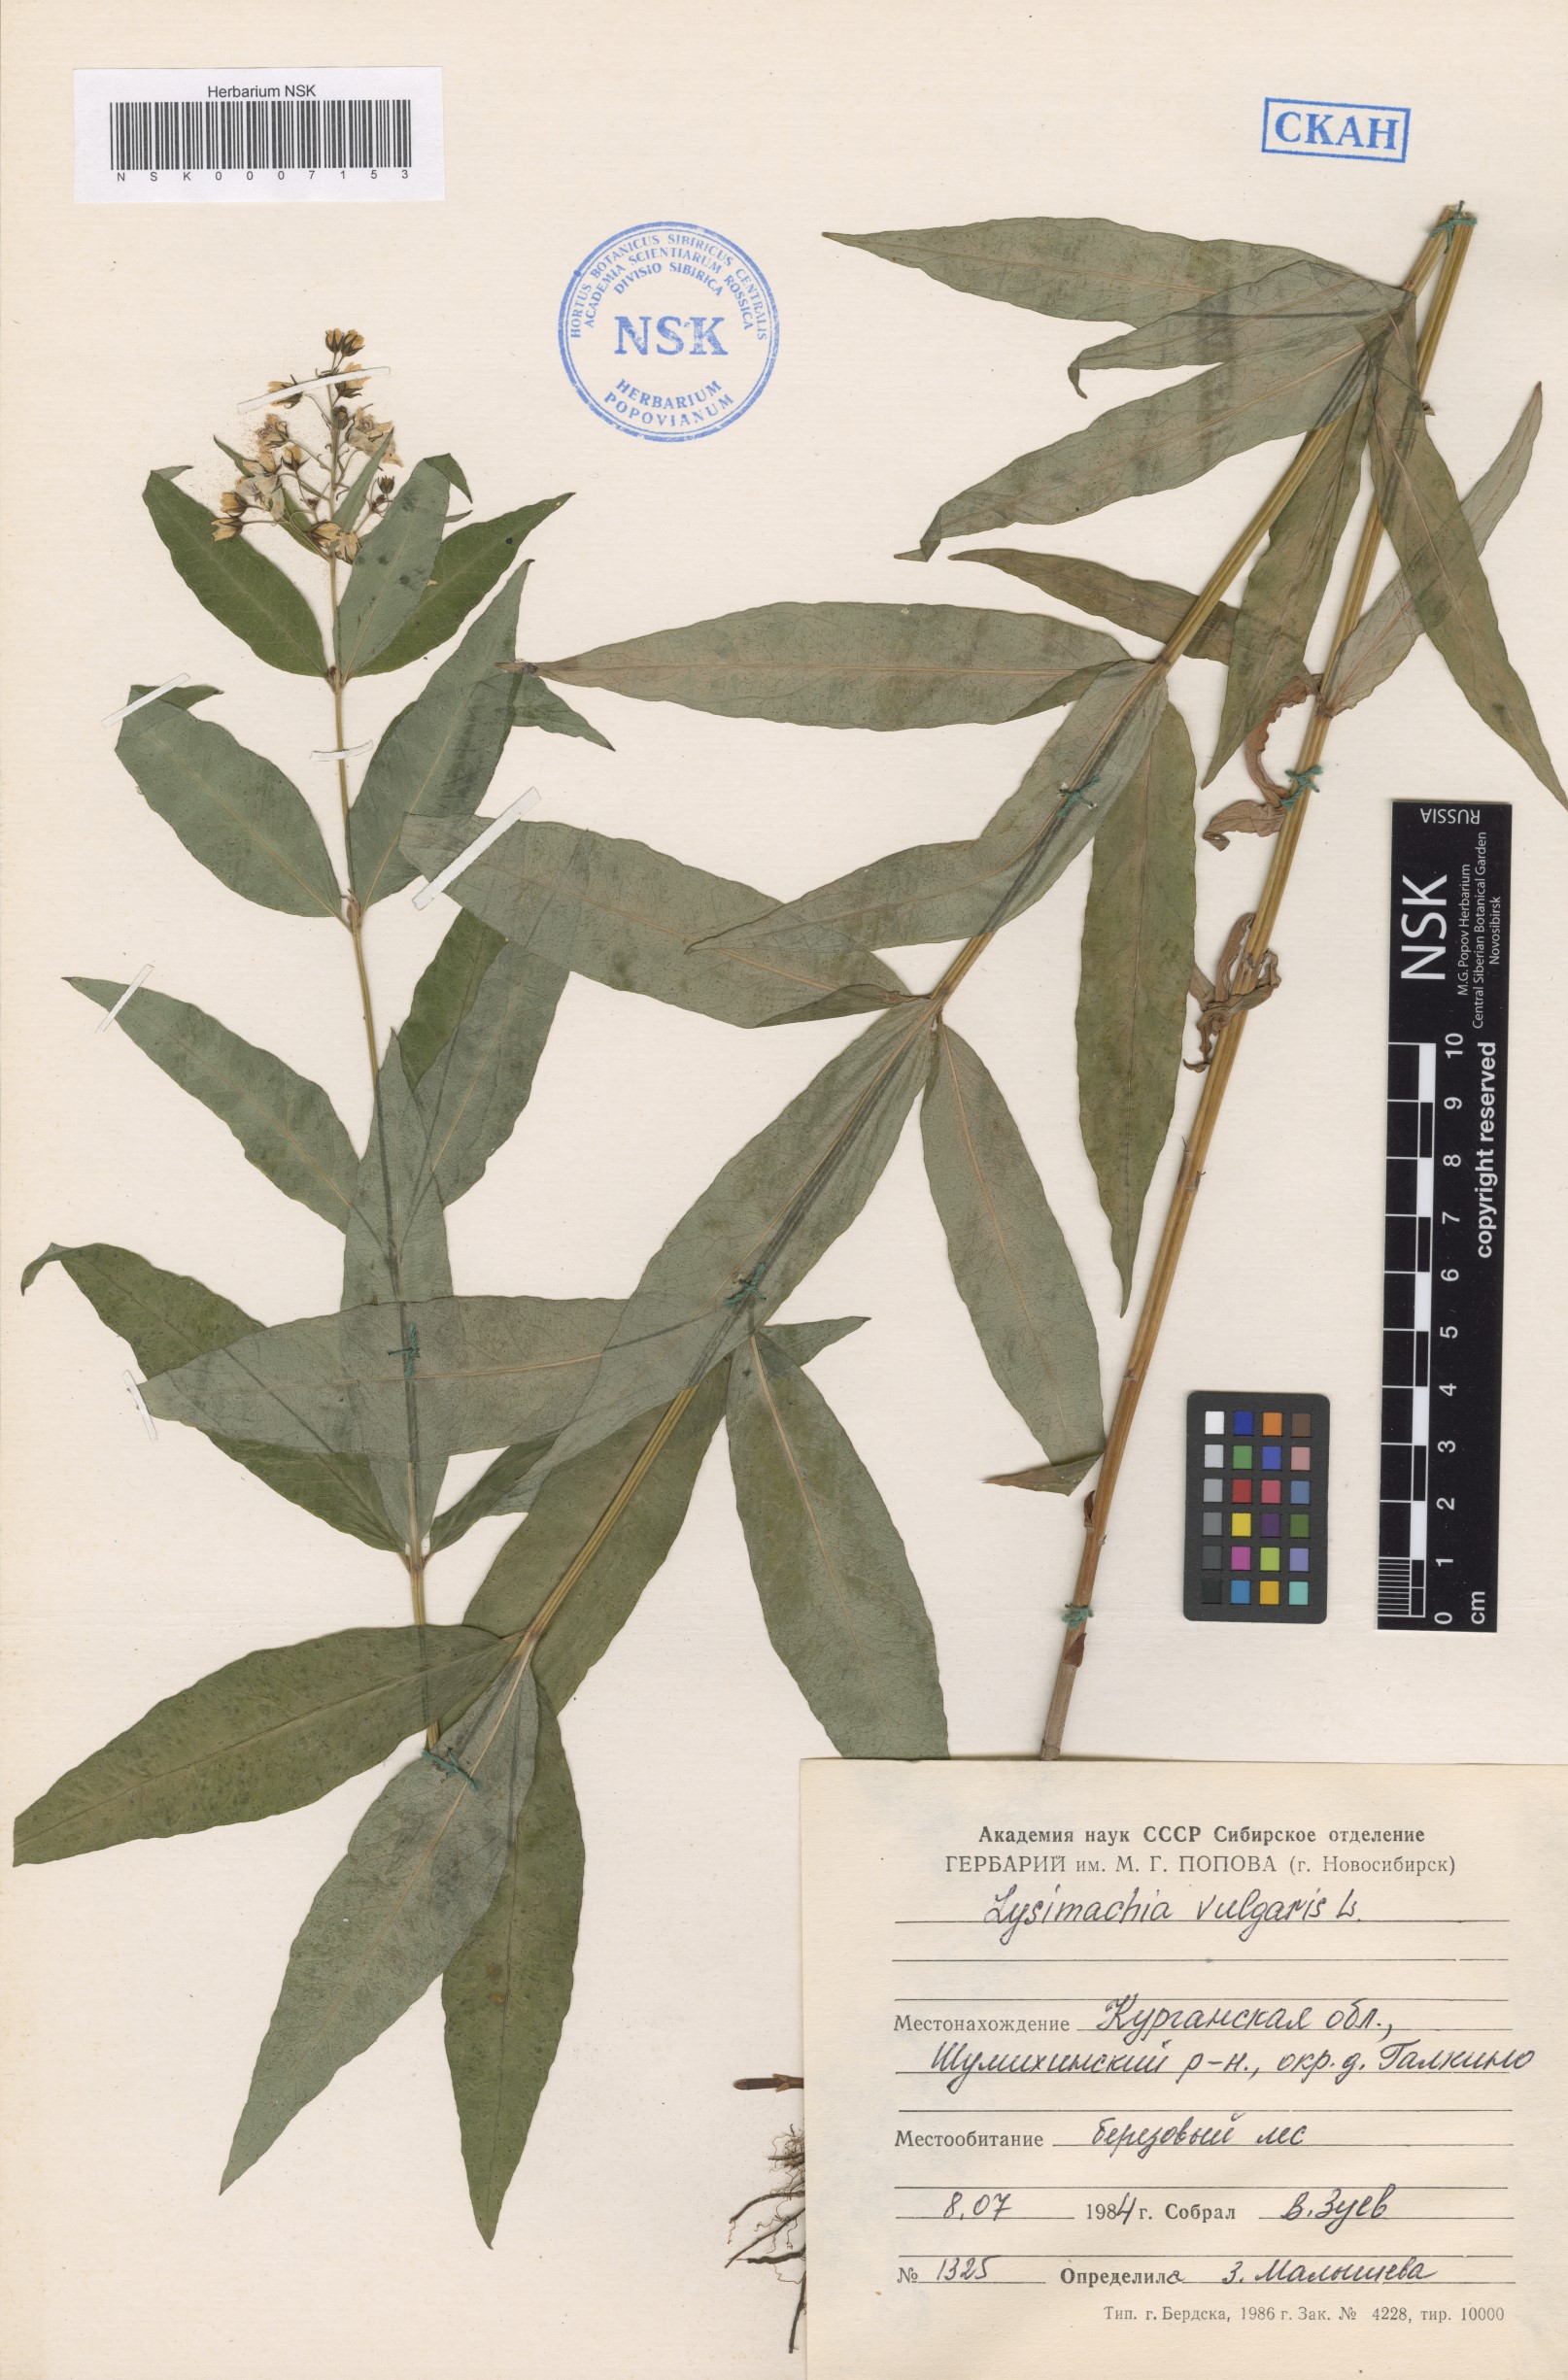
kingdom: Plantae
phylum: Tracheophyta
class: Magnoliopsida
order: Ericales
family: Primulaceae
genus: Lysimachia
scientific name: Lysimachia vulgaris
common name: Yellow loosestrife
